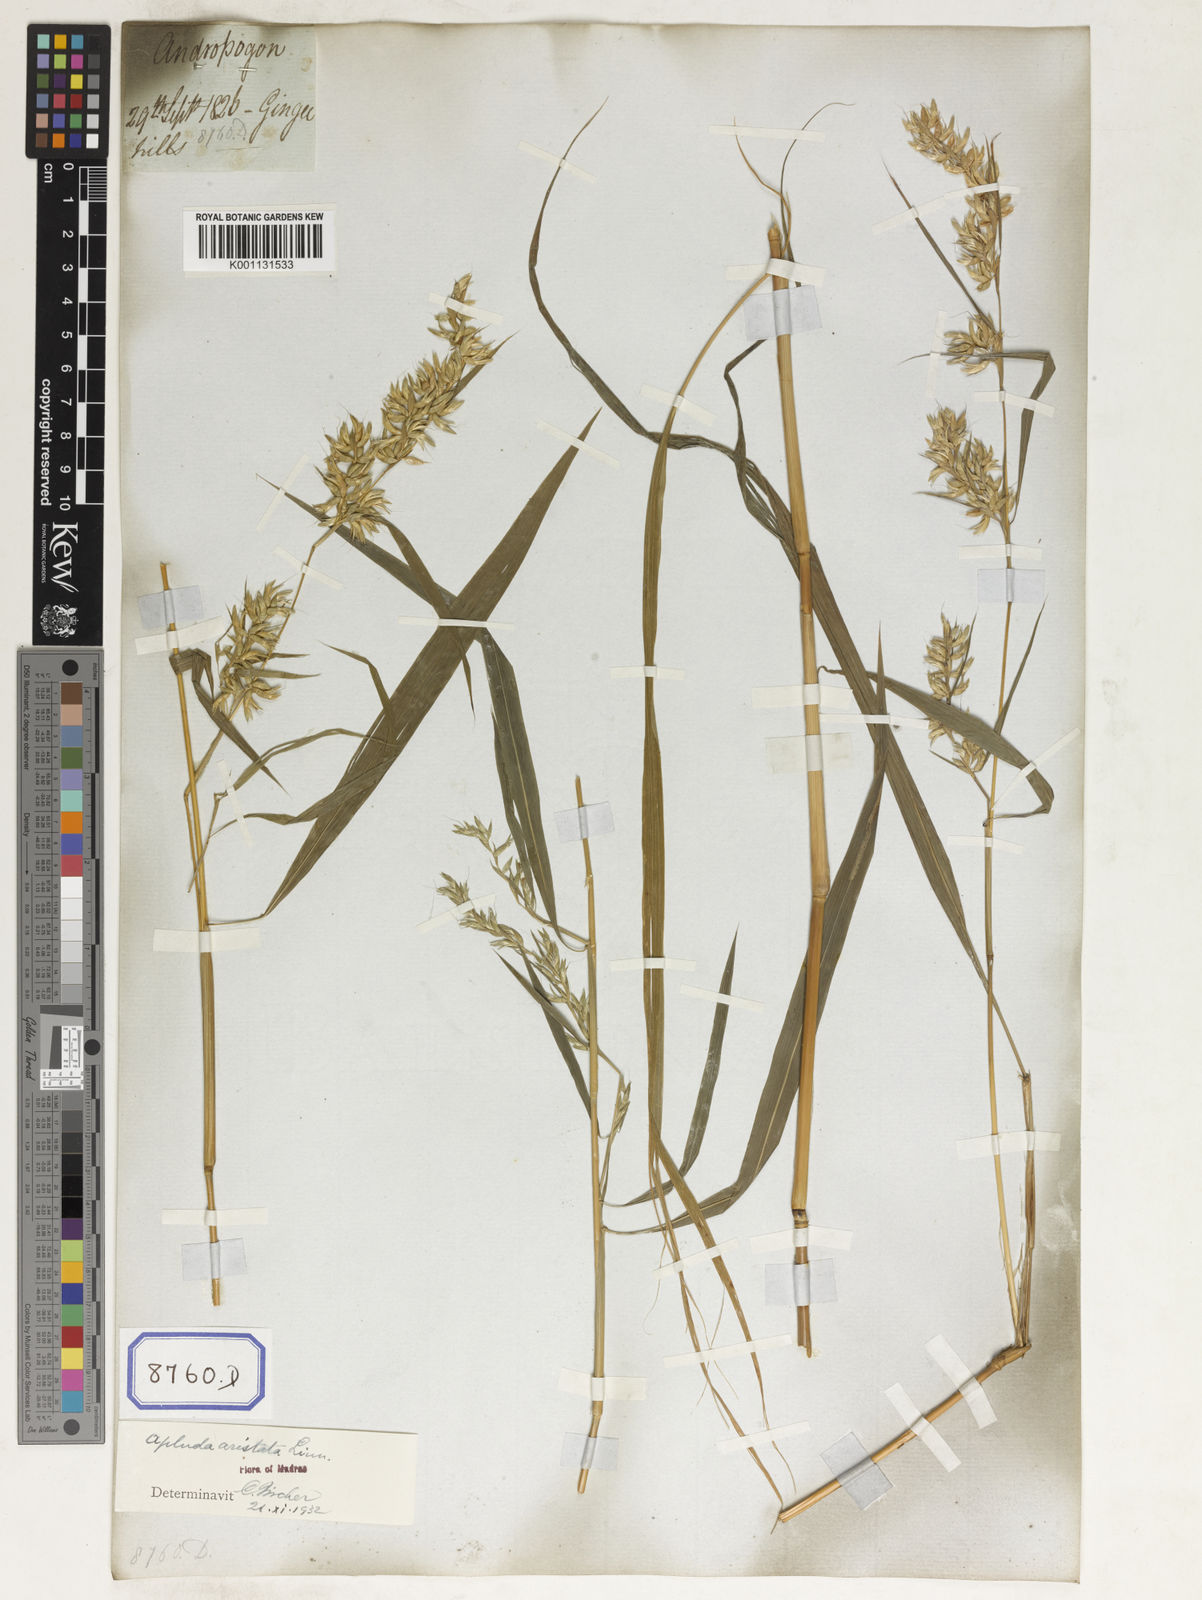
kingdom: Plantae
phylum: Tracheophyta
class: Liliopsida
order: Poales
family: Poaceae
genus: Apluda
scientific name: Apluda
